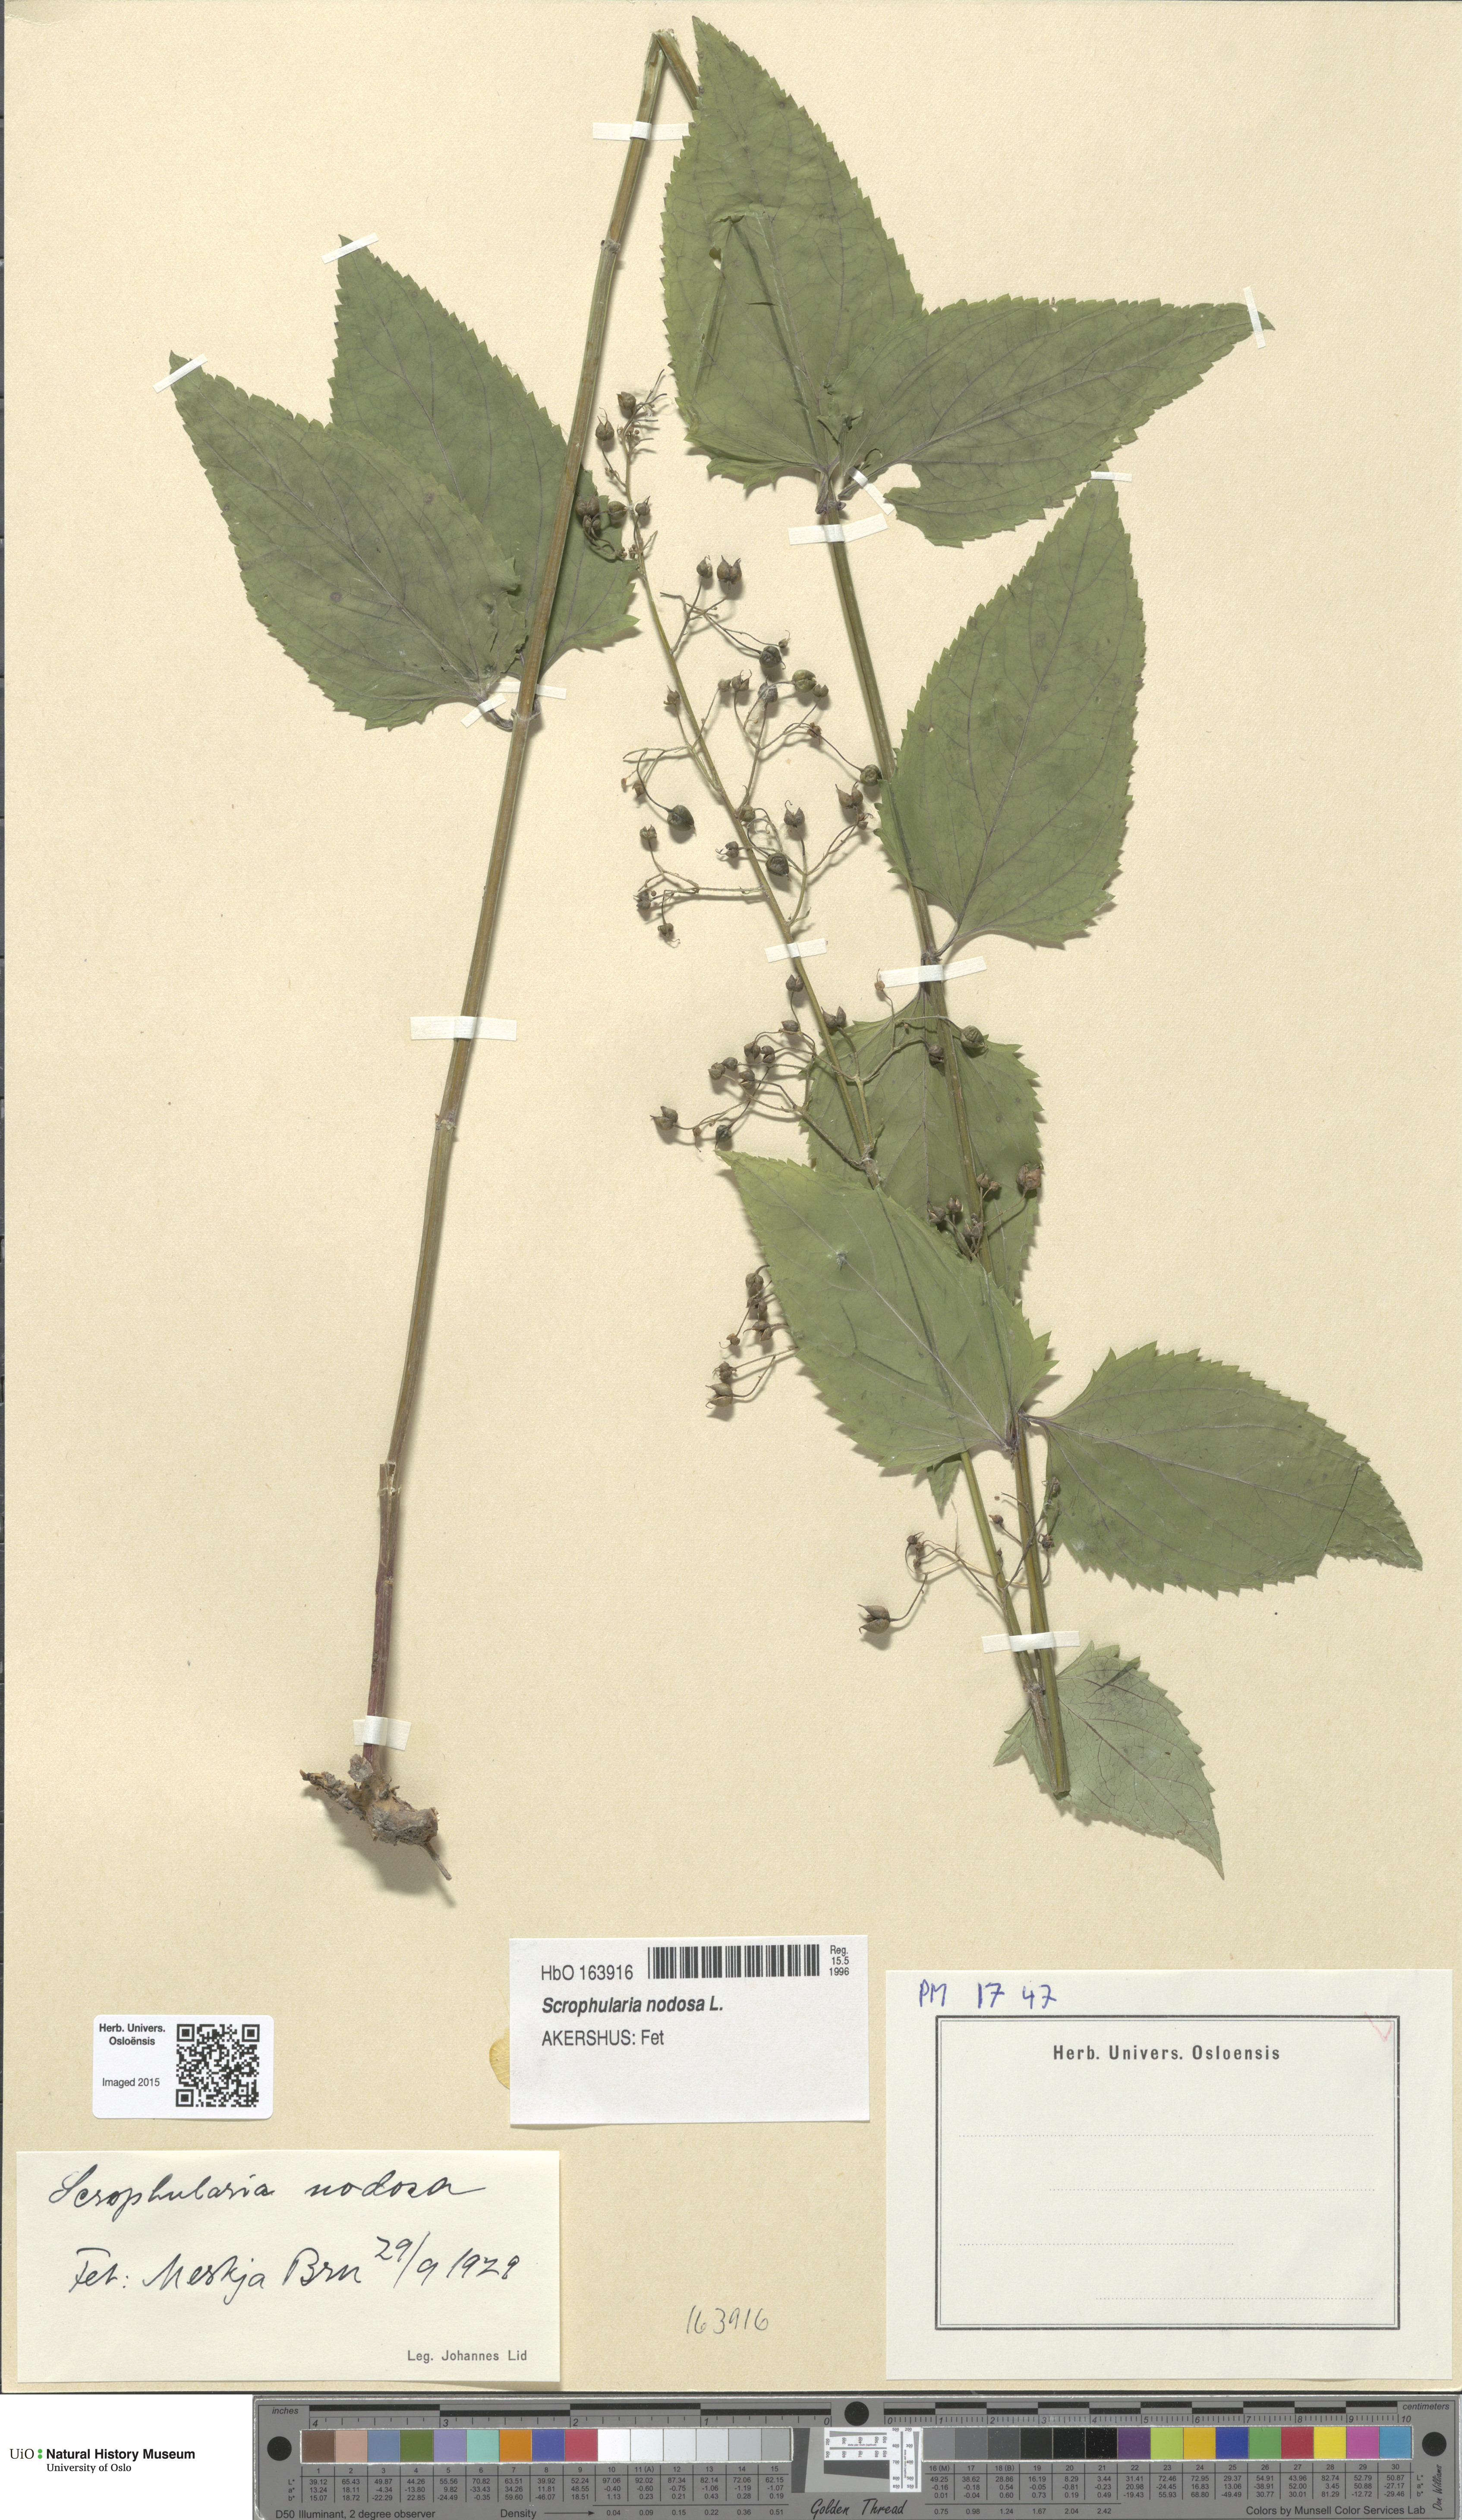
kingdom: Plantae
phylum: Tracheophyta
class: Magnoliopsida
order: Lamiales
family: Scrophulariaceae
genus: Scrophularia
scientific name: Scrophularia nodosa
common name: Common figwort
